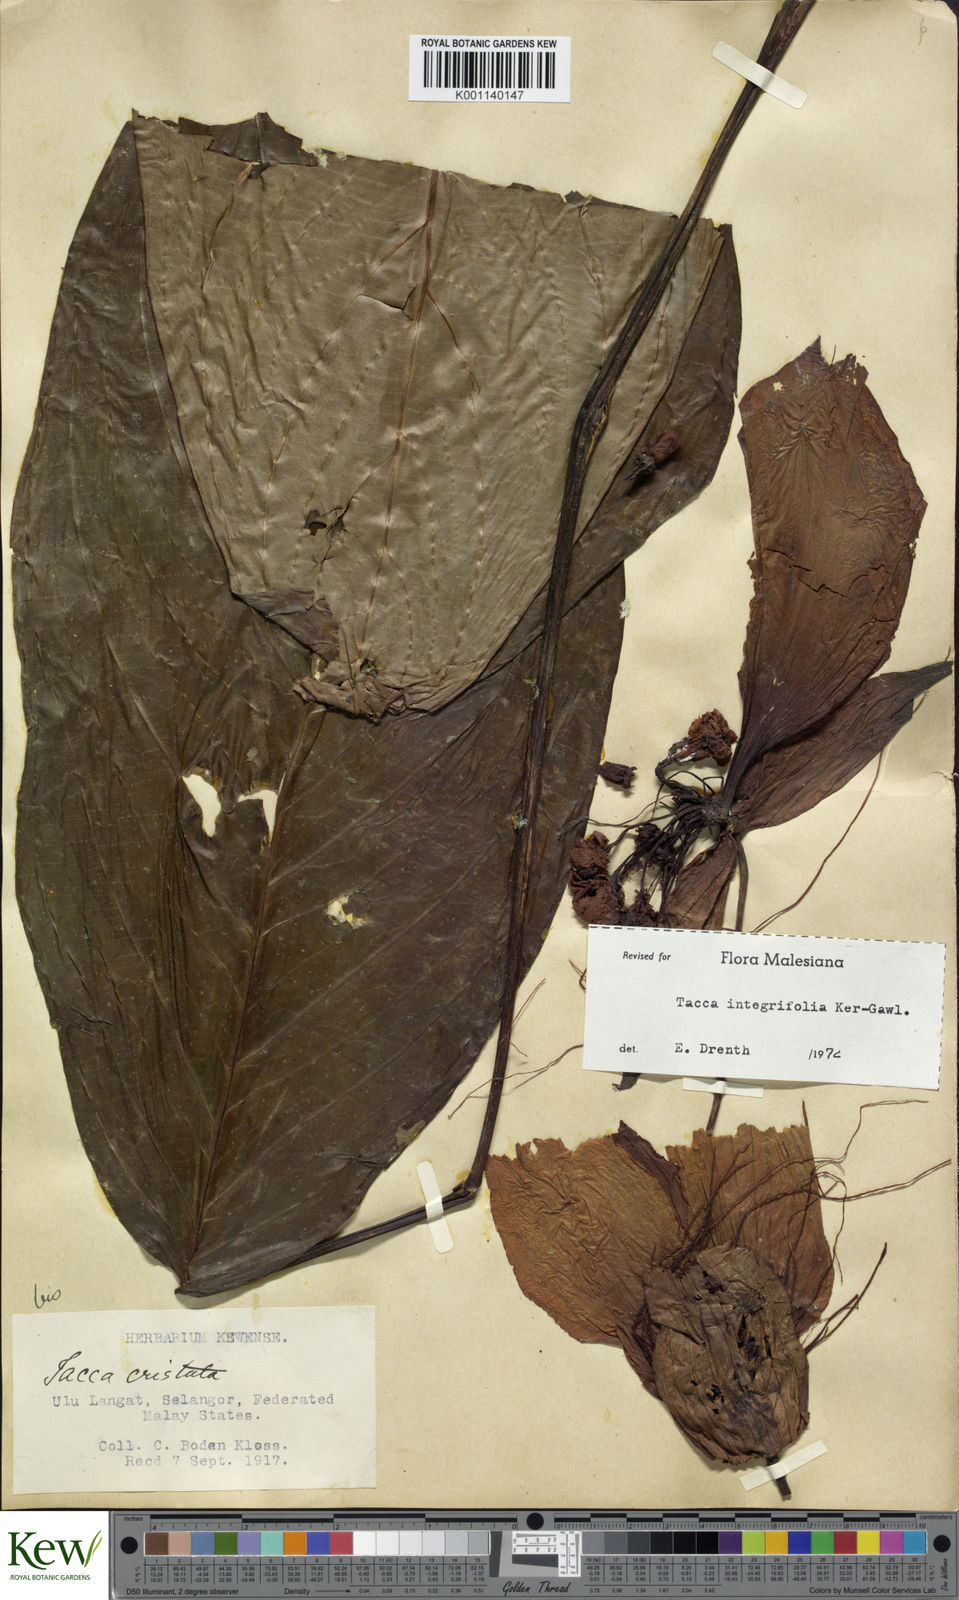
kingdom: Plantae
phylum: Tracheophyta
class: Liliopsida
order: Dioscoreales
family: Dioscoreaceae
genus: Tacca
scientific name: Tacca integrifolia
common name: Batplant
